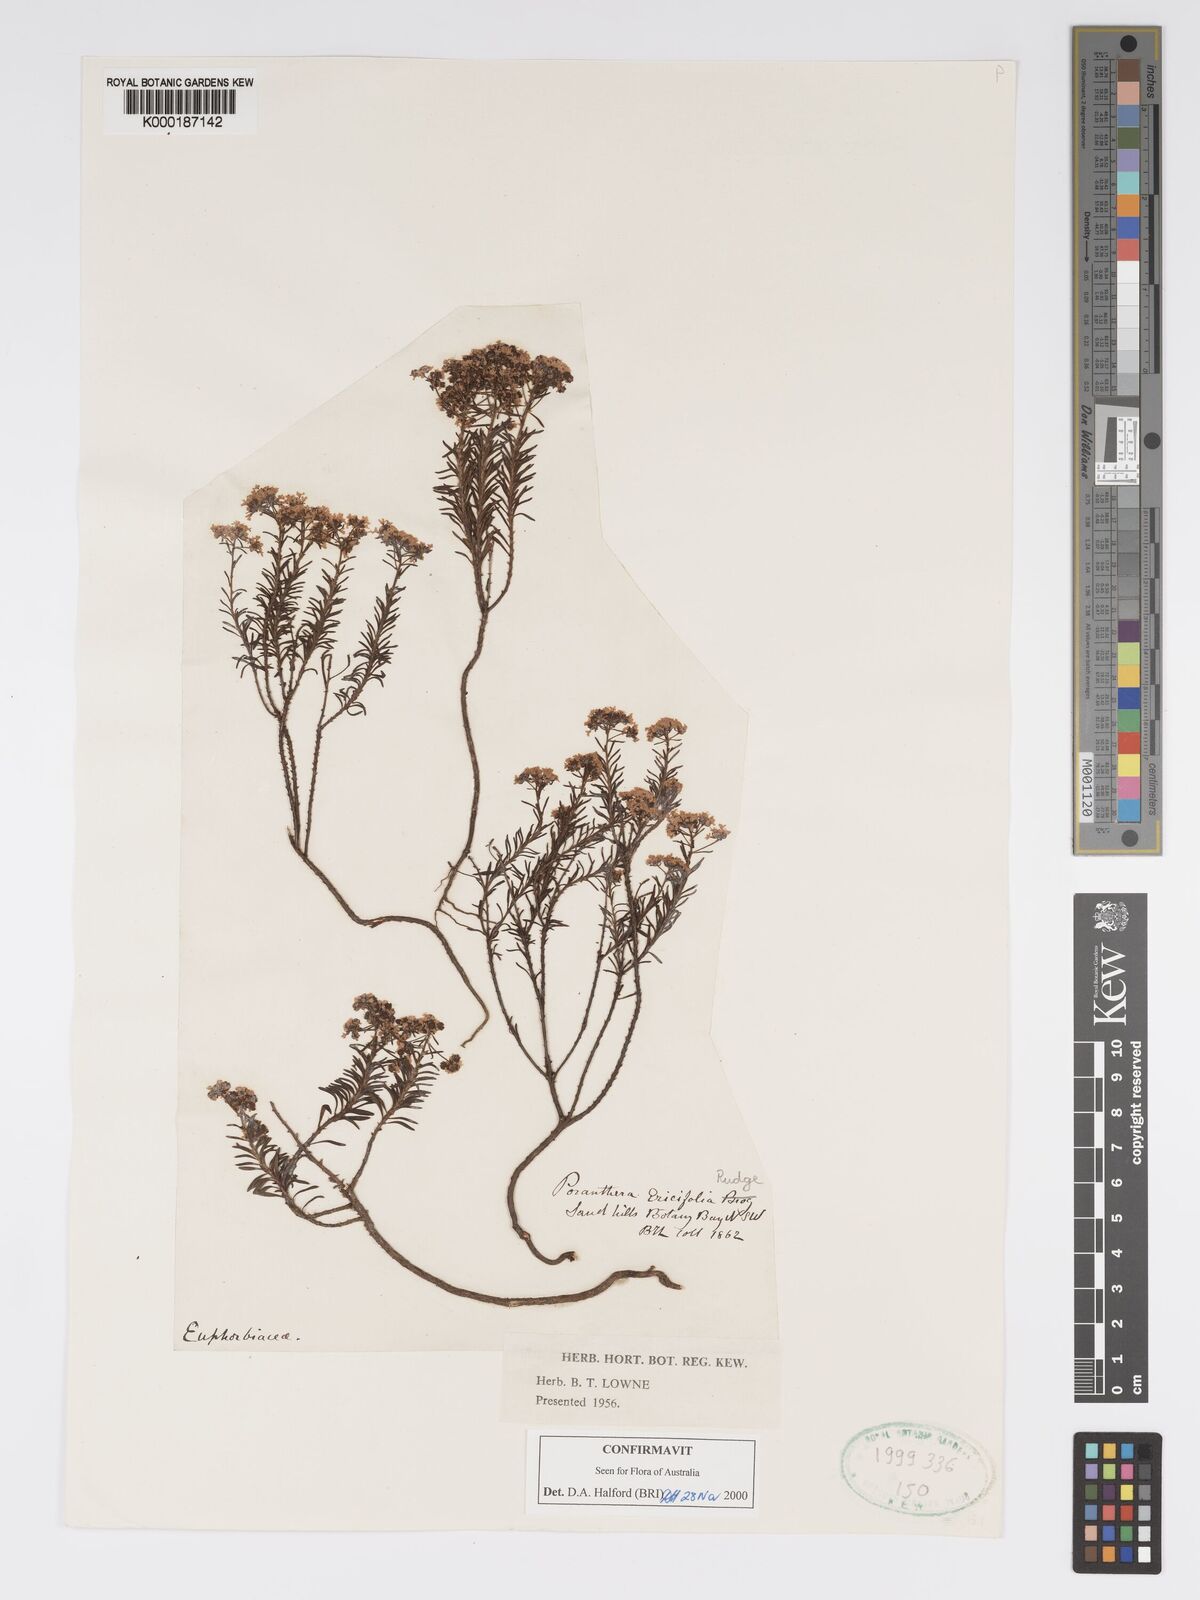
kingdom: Plantae
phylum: Tracheophyta
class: Magnoliopsida
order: Malpighiales
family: Phyllanthaceae
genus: Poranthera
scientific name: Poranthera ericifolia
